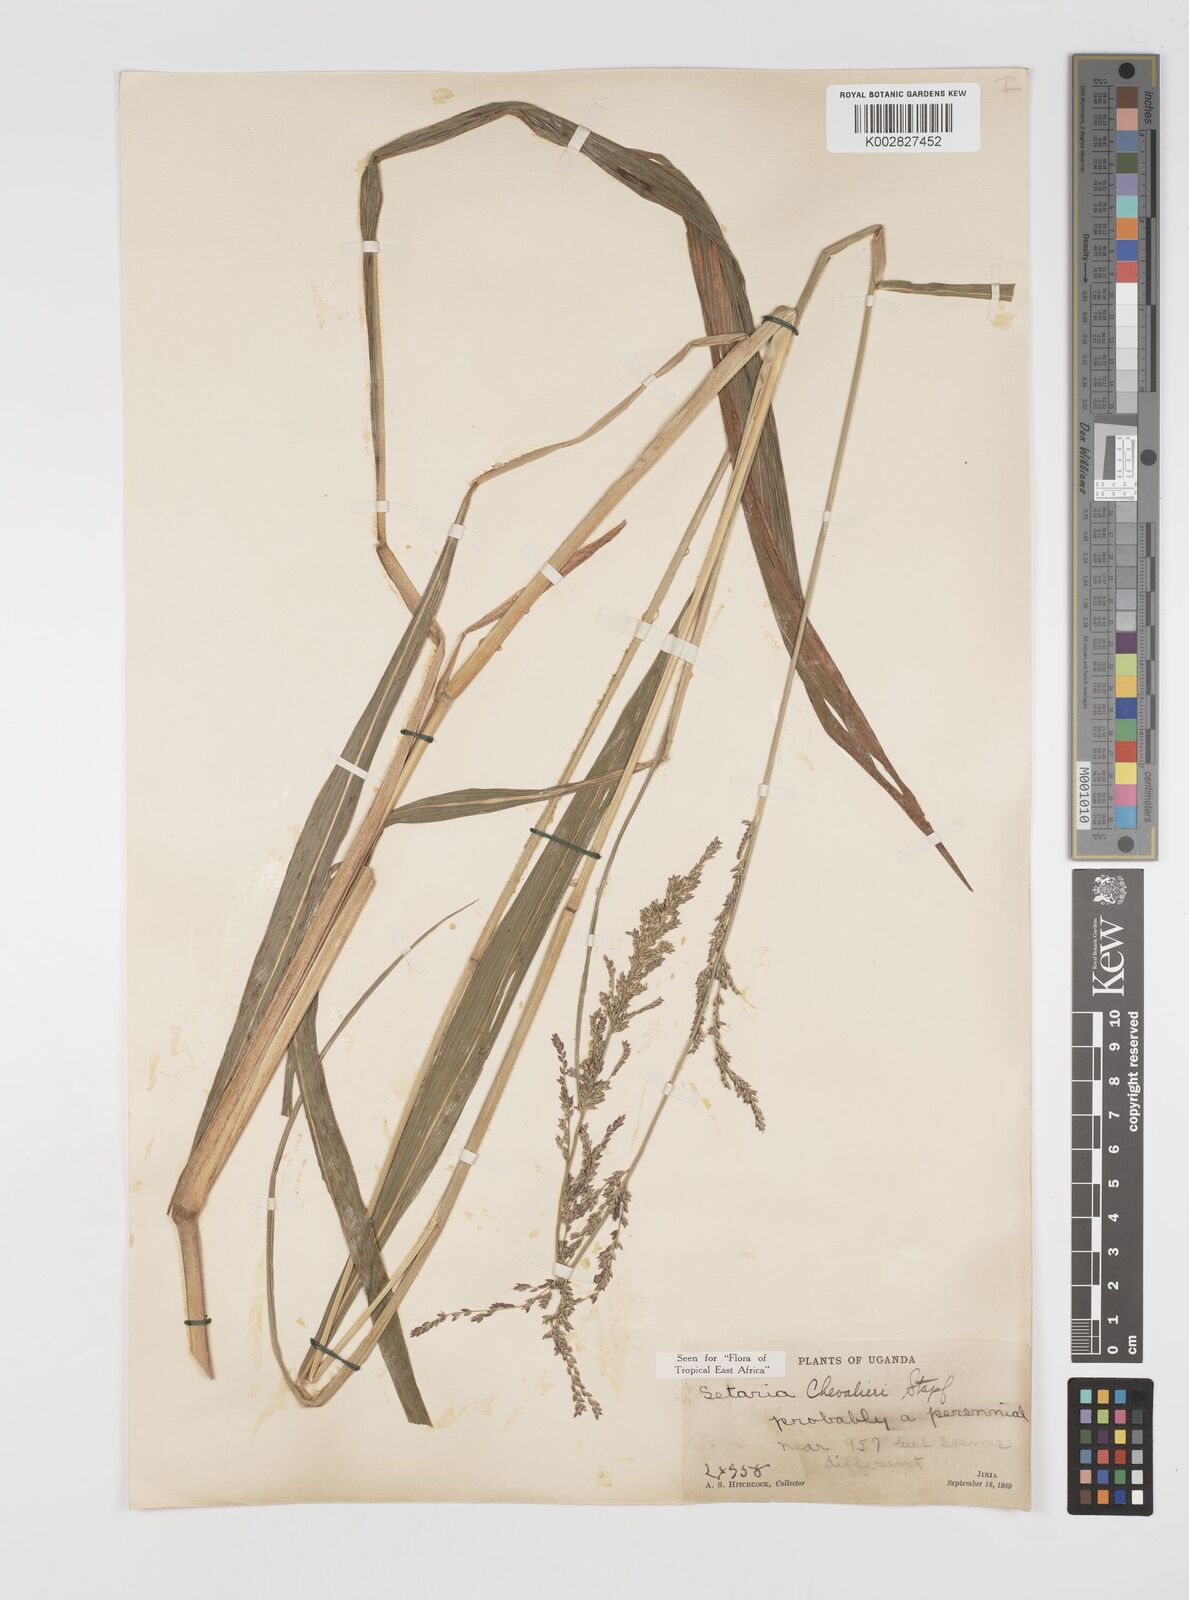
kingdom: Plantae
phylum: Tracheophyta
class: Liliopsida
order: Poales
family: Poaceae
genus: Setaria
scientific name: Setaria megaphylla
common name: Bigleaf bristlegrass
